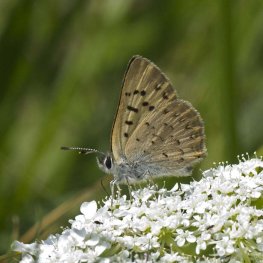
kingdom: Animalia
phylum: Arthropoda
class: Insecta
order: Lepidoptera
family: Lycaenidae
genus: Epidemia
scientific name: Epidemia dorcas
